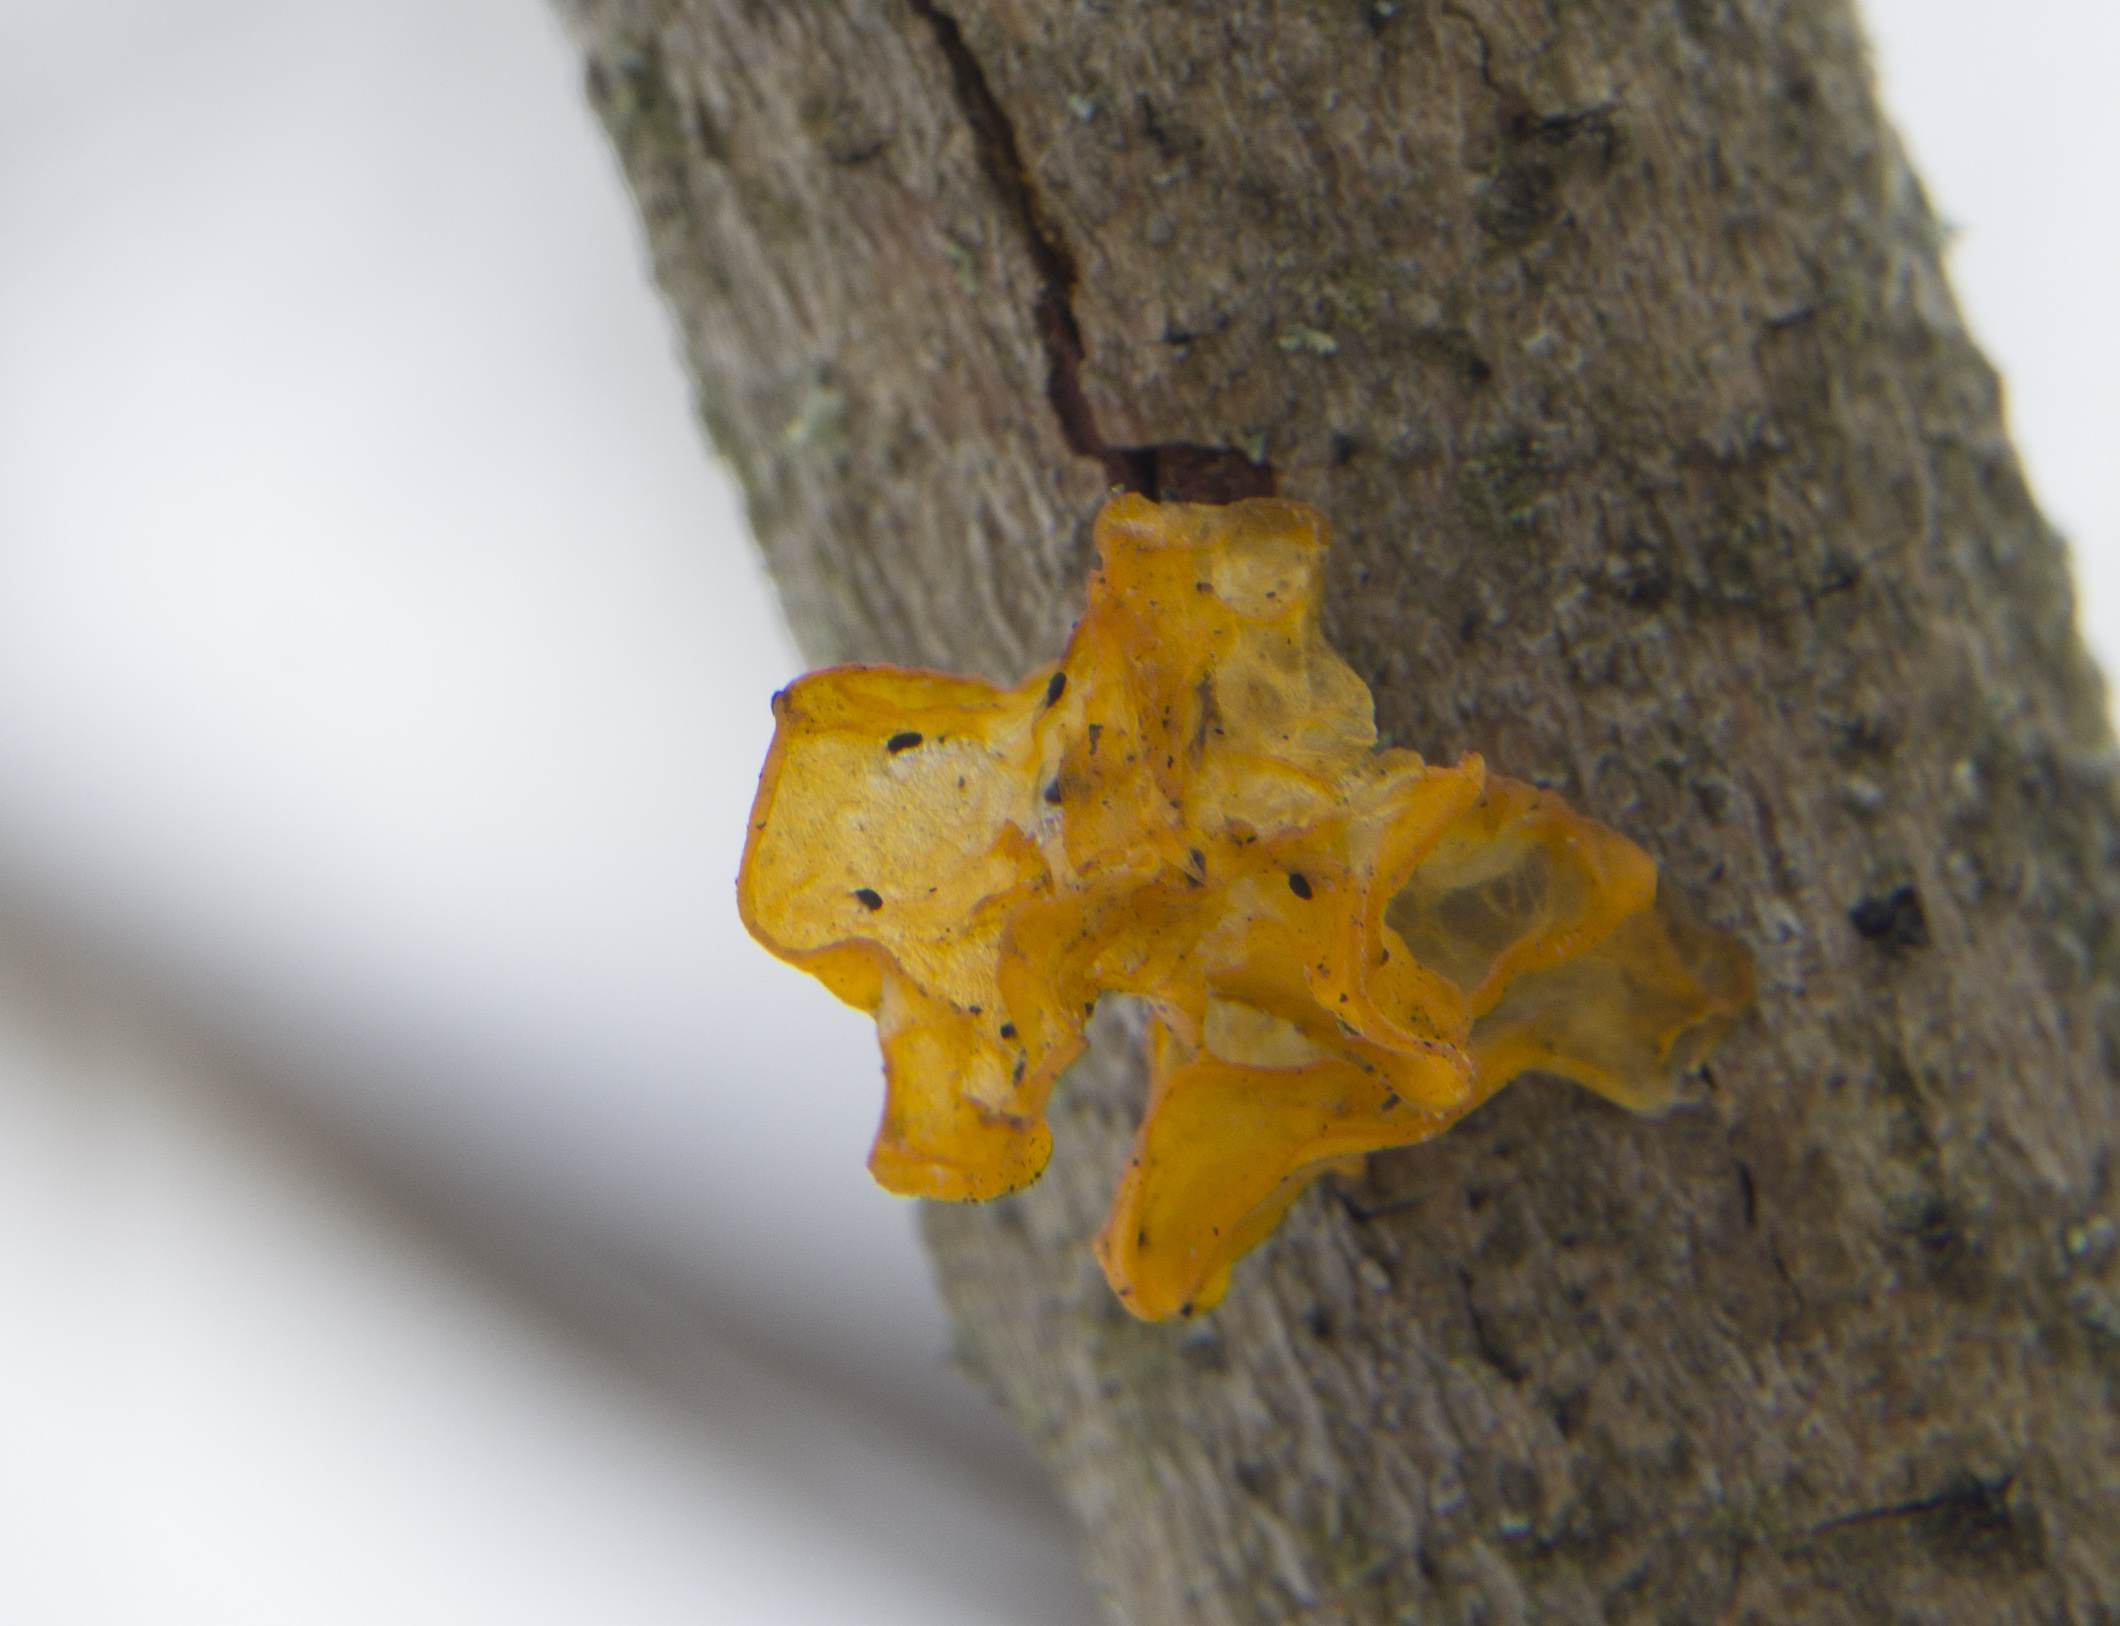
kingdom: Fungi
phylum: Basidiomycota
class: Tremellomycetes
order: Tremellales
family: Tremellaceae
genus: Tremella
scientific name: Tremella mesenterica
